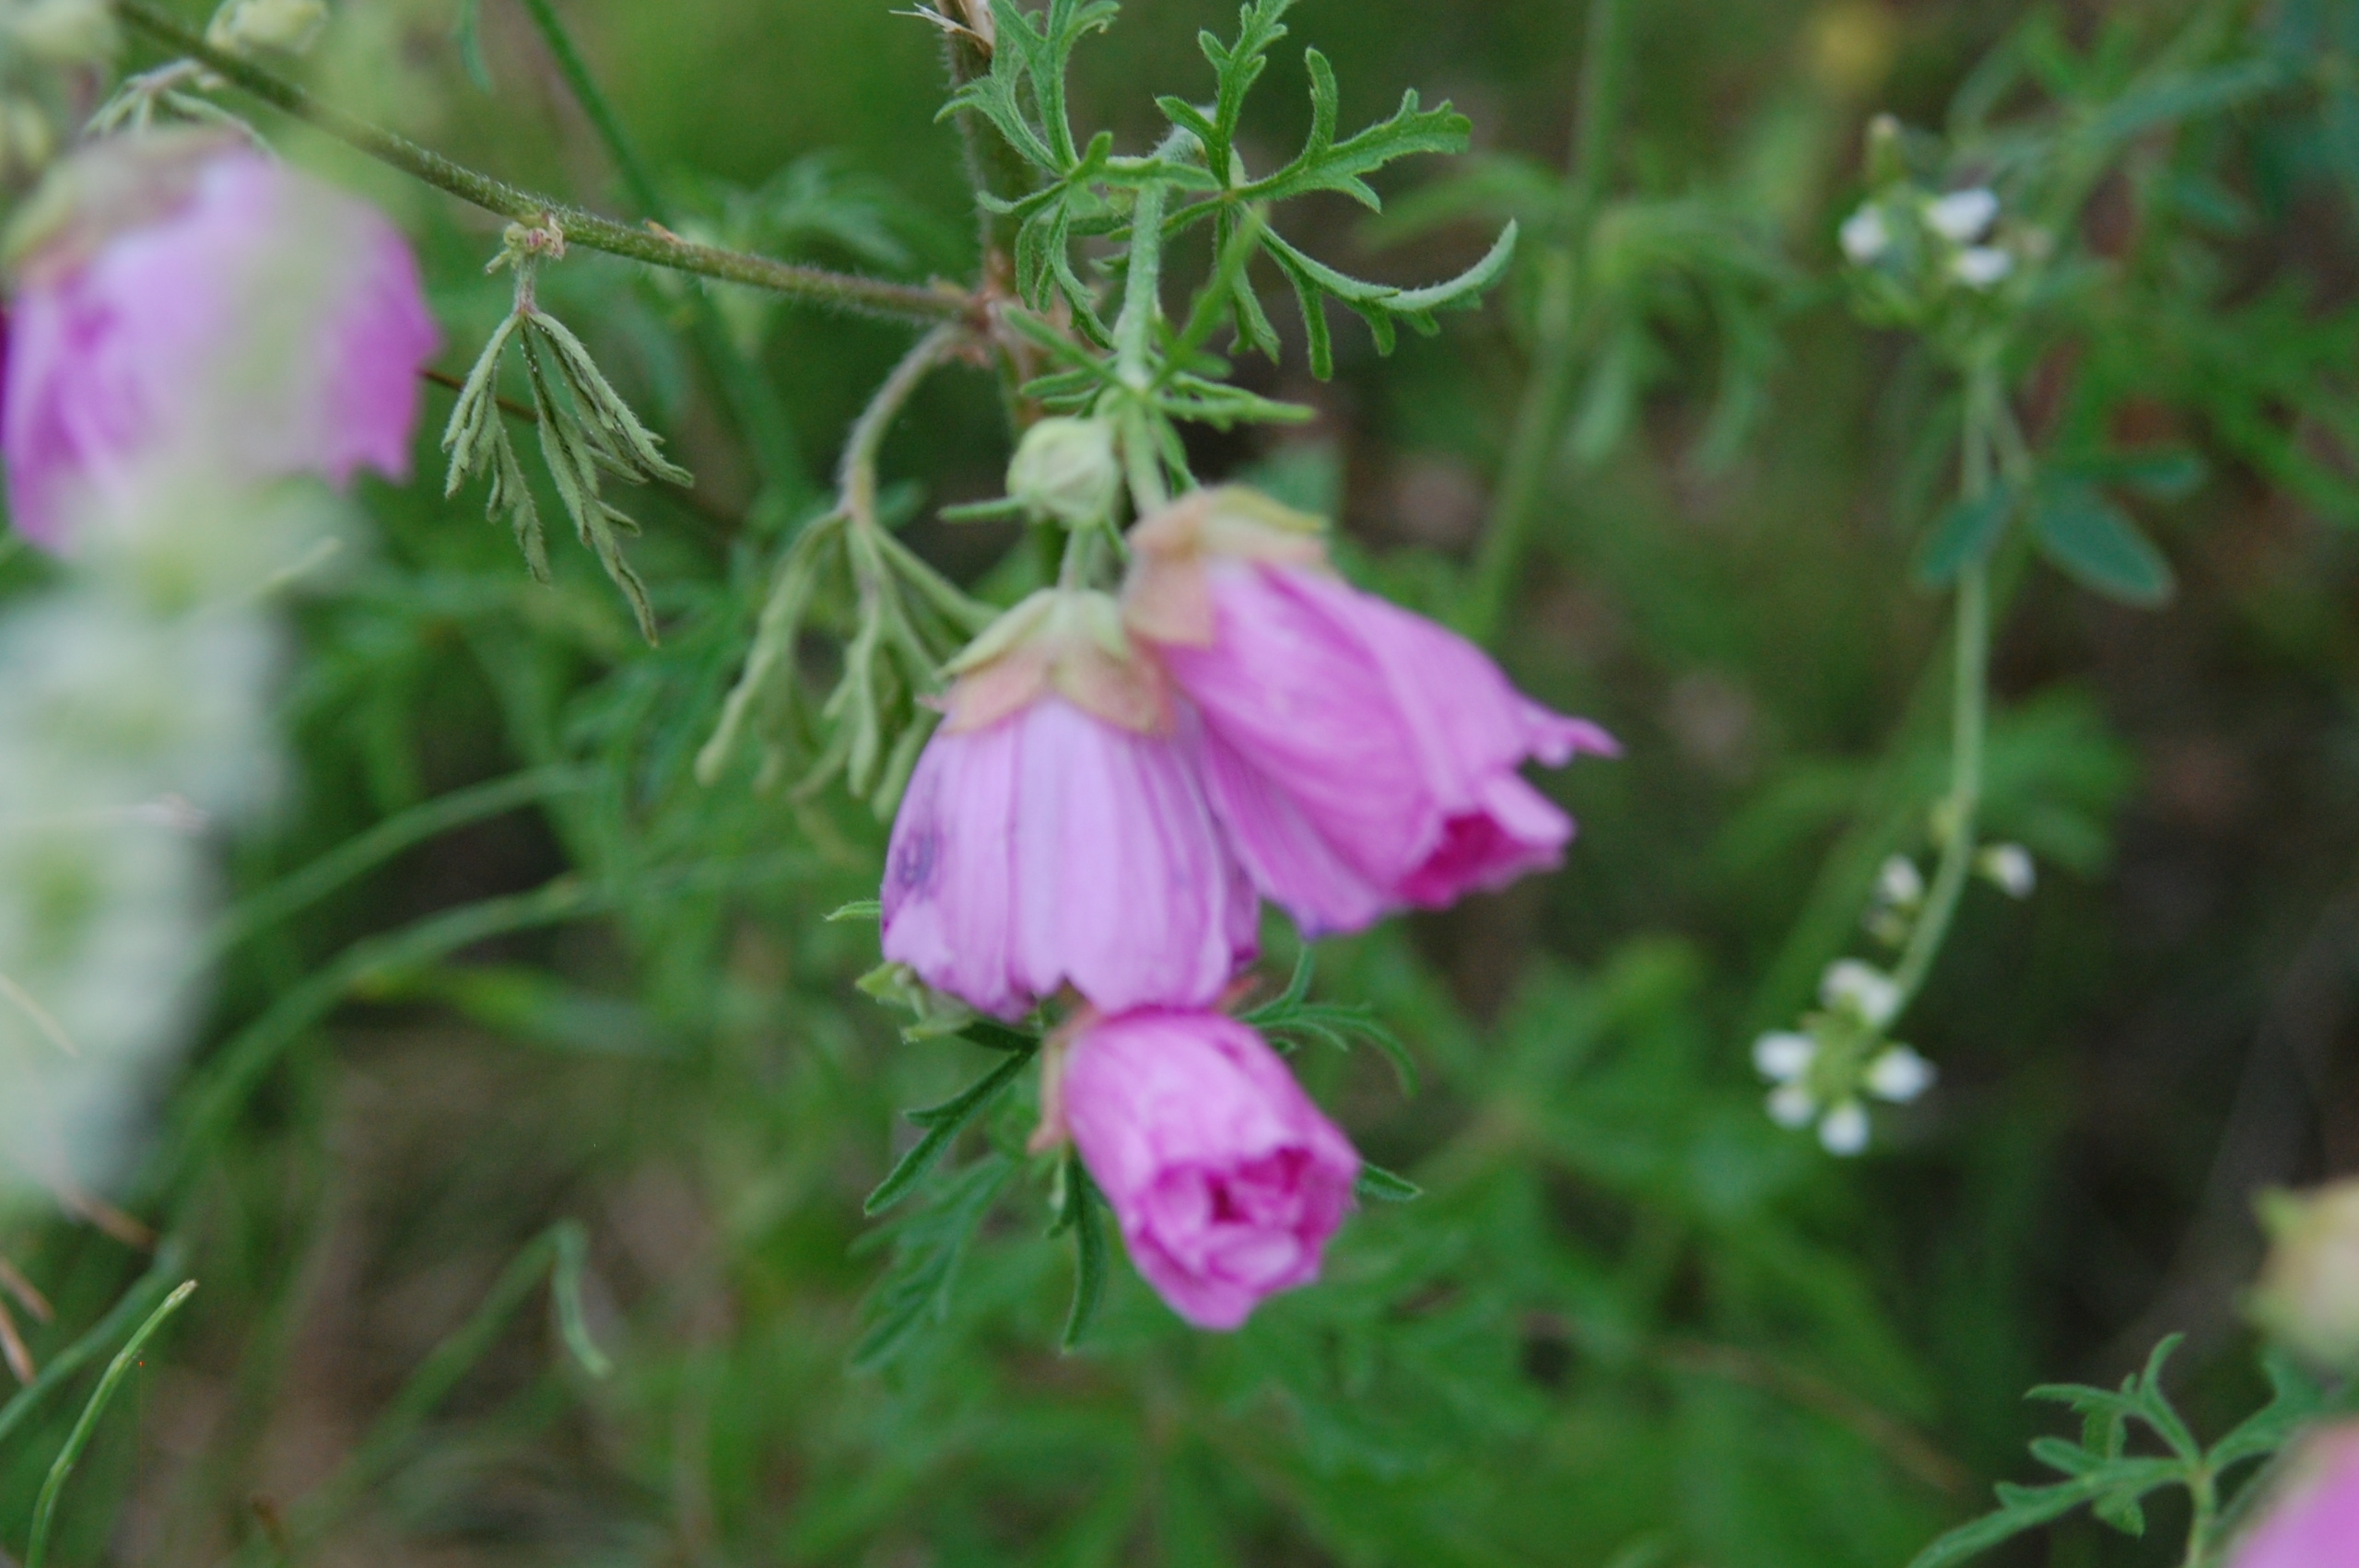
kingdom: Plantae
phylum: Tracheophyta
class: Magnoliopsida
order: Malvales
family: Malvaceae
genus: Malva
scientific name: Malva alcea
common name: Rosen-katost
